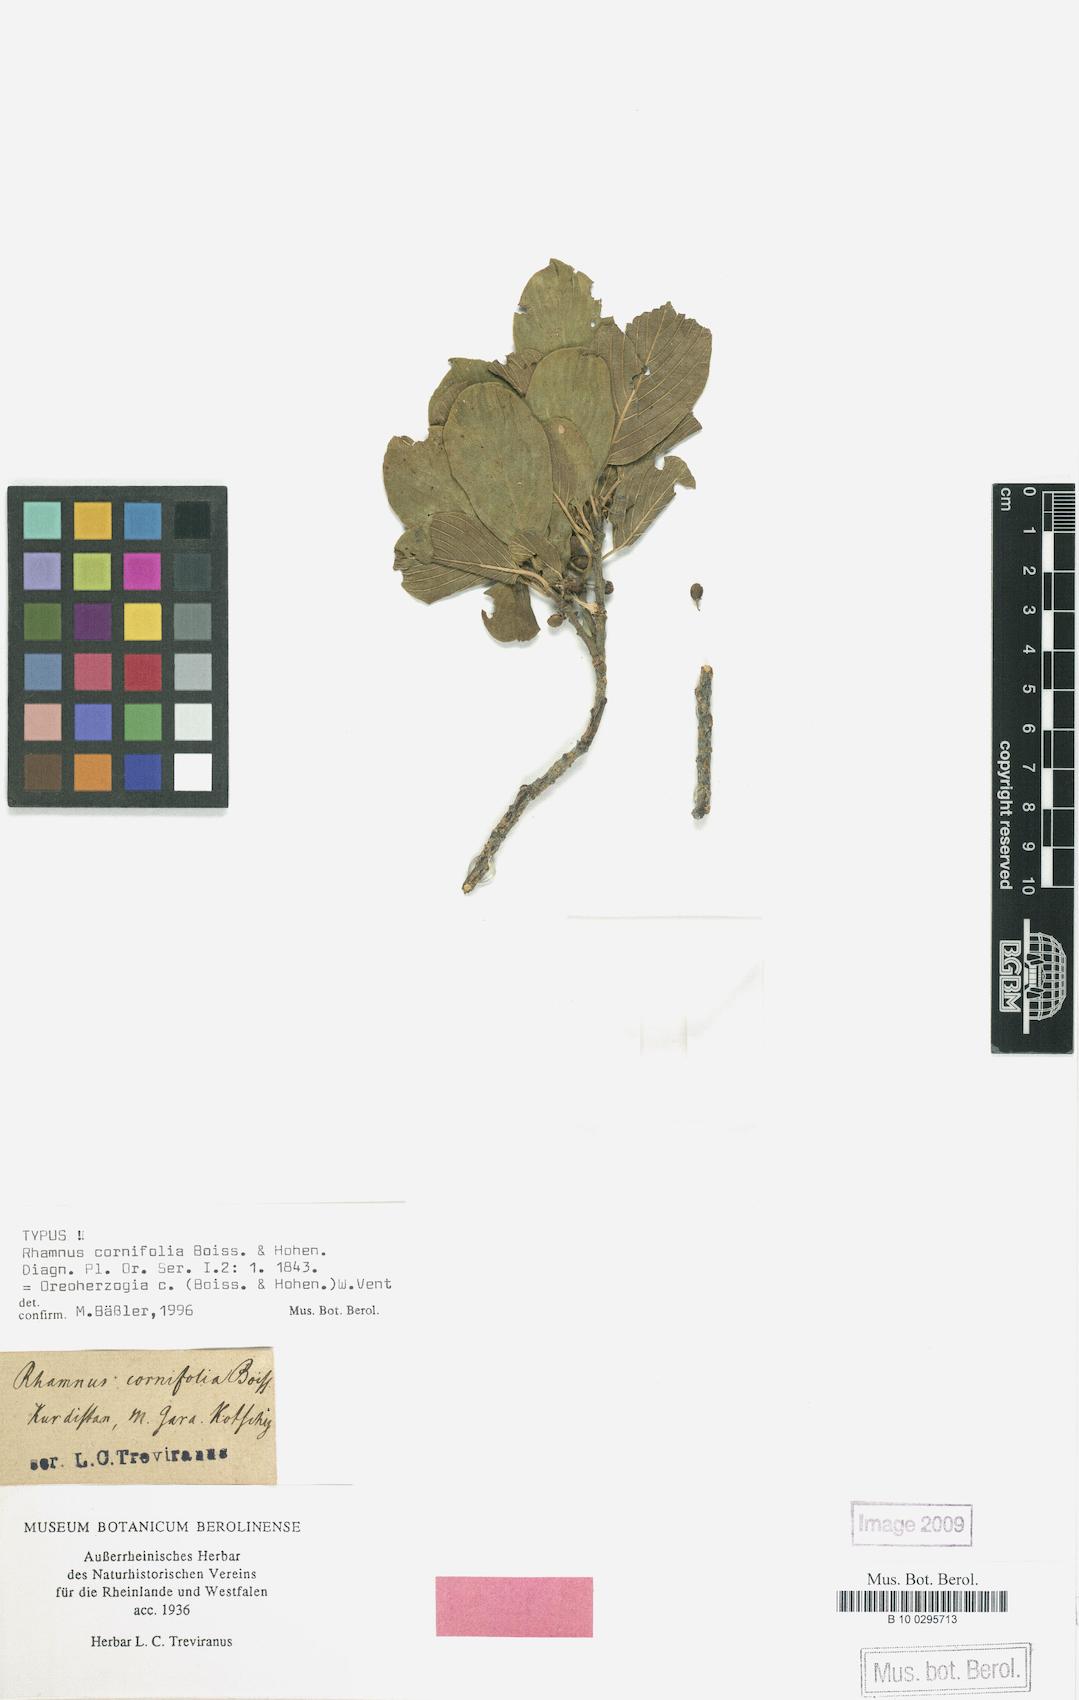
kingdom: Plantae
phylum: Tracheophyta
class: Magnoliopsida
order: Rosales
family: Rhamnaceae
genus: Atadinus
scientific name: Atadinus cornifolius
